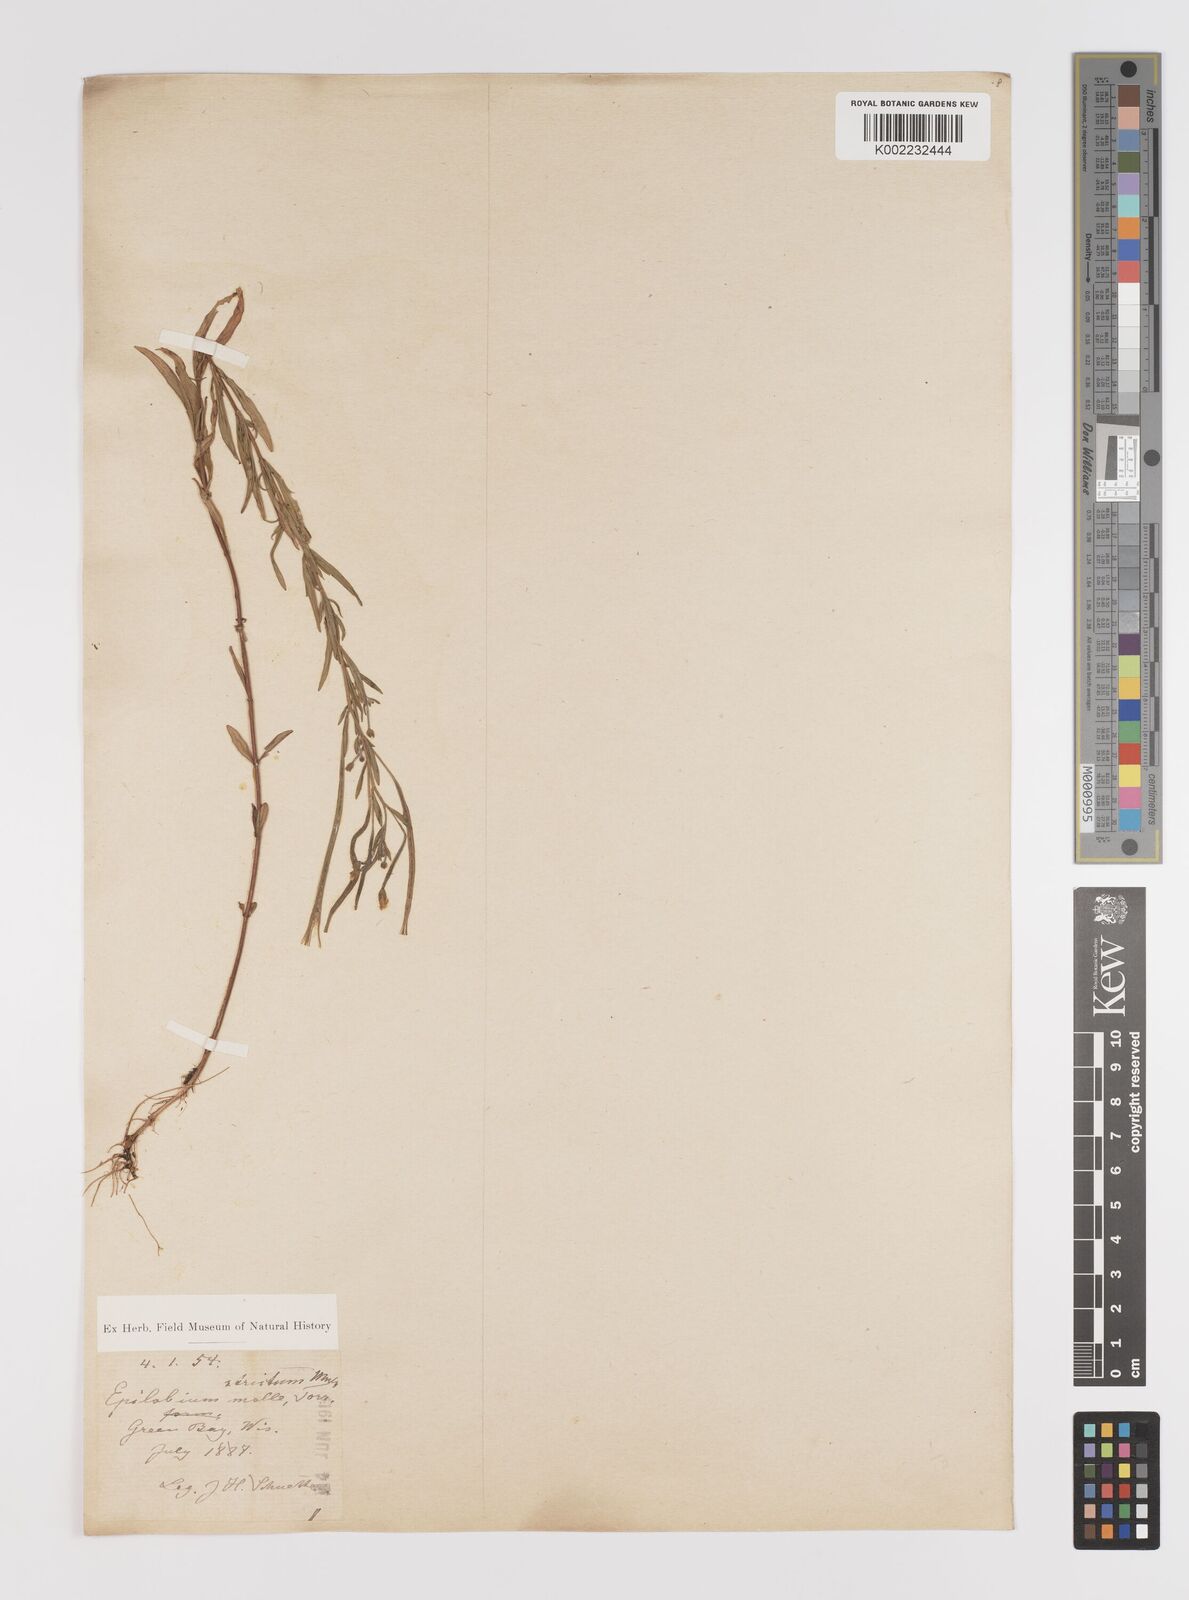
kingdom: Plantae
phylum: Tracheophyta
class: Magnoliopsida
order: Myrtales
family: Onagraceae
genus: Epilobium
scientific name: Epilobium densum
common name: Downy willowherb
